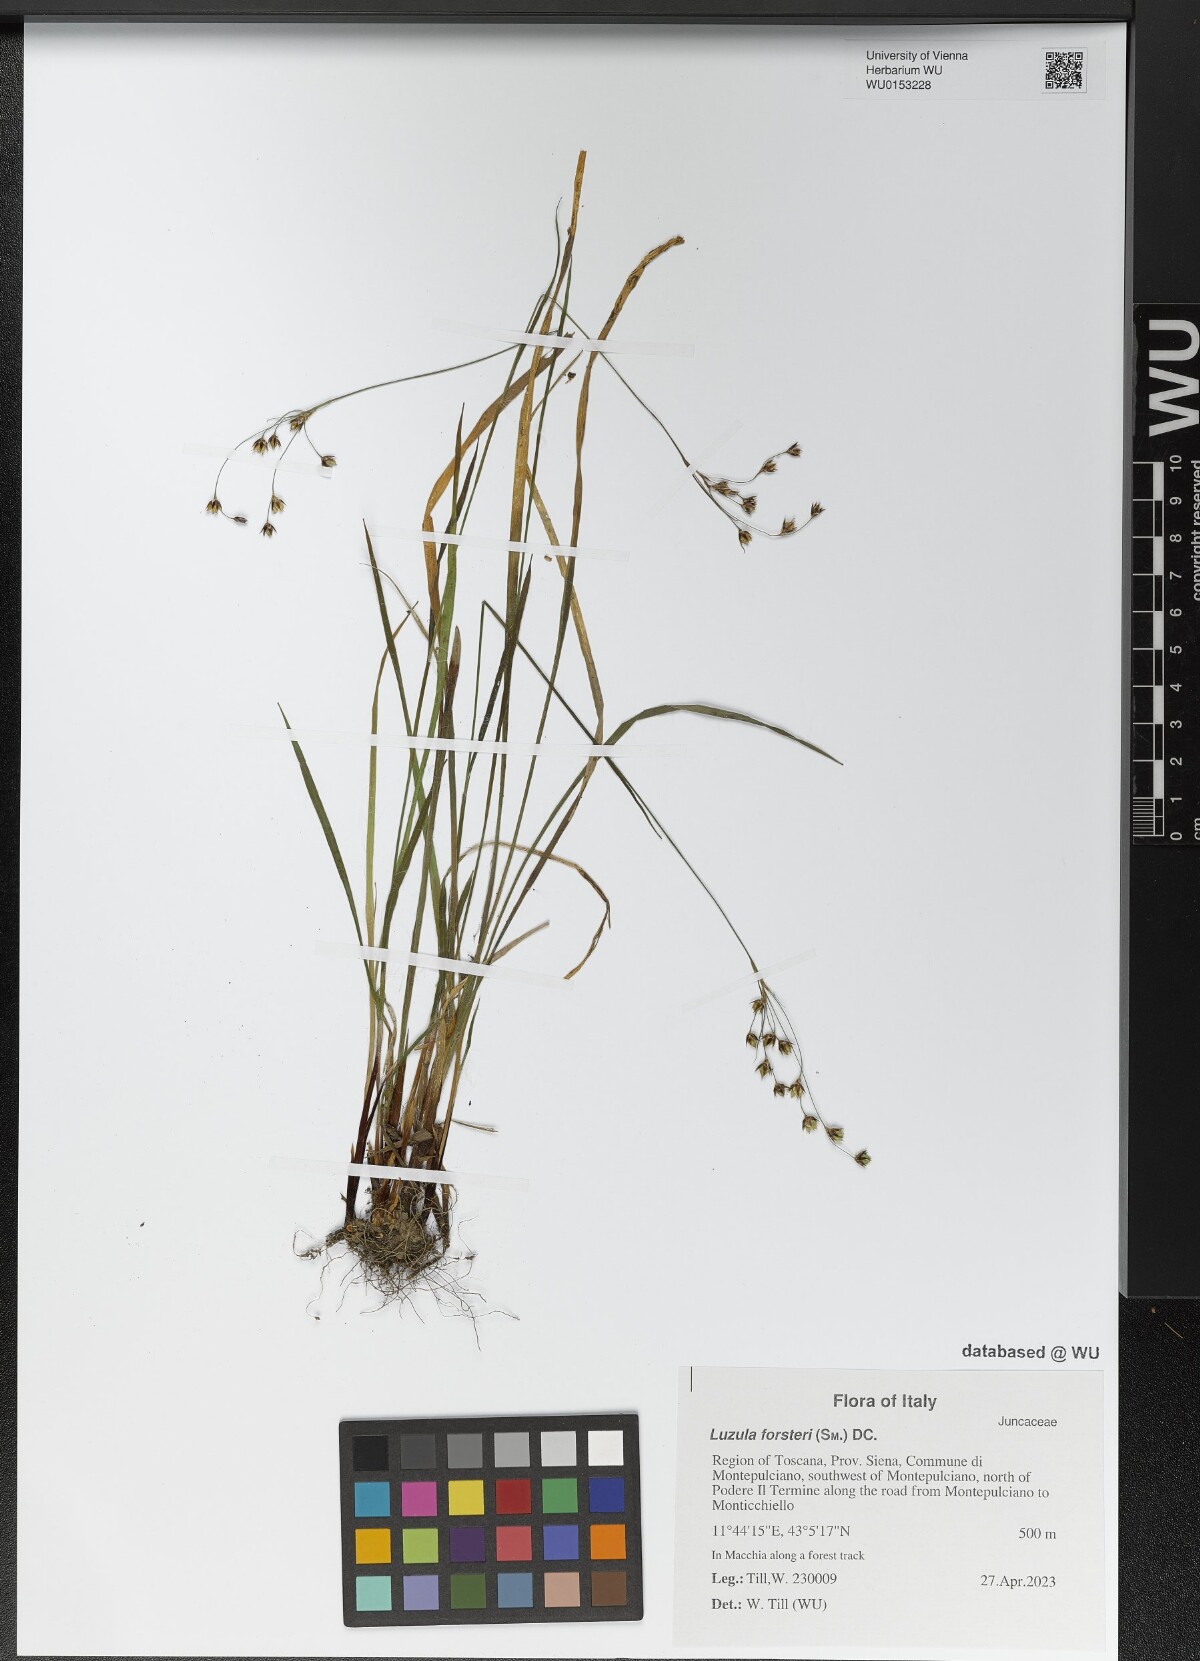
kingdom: Plantae
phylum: Tracheophyta
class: Liliopsida
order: Poales
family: Juncaceae
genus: Luzula
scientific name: Luzula forsteri
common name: Southern wood-rush
